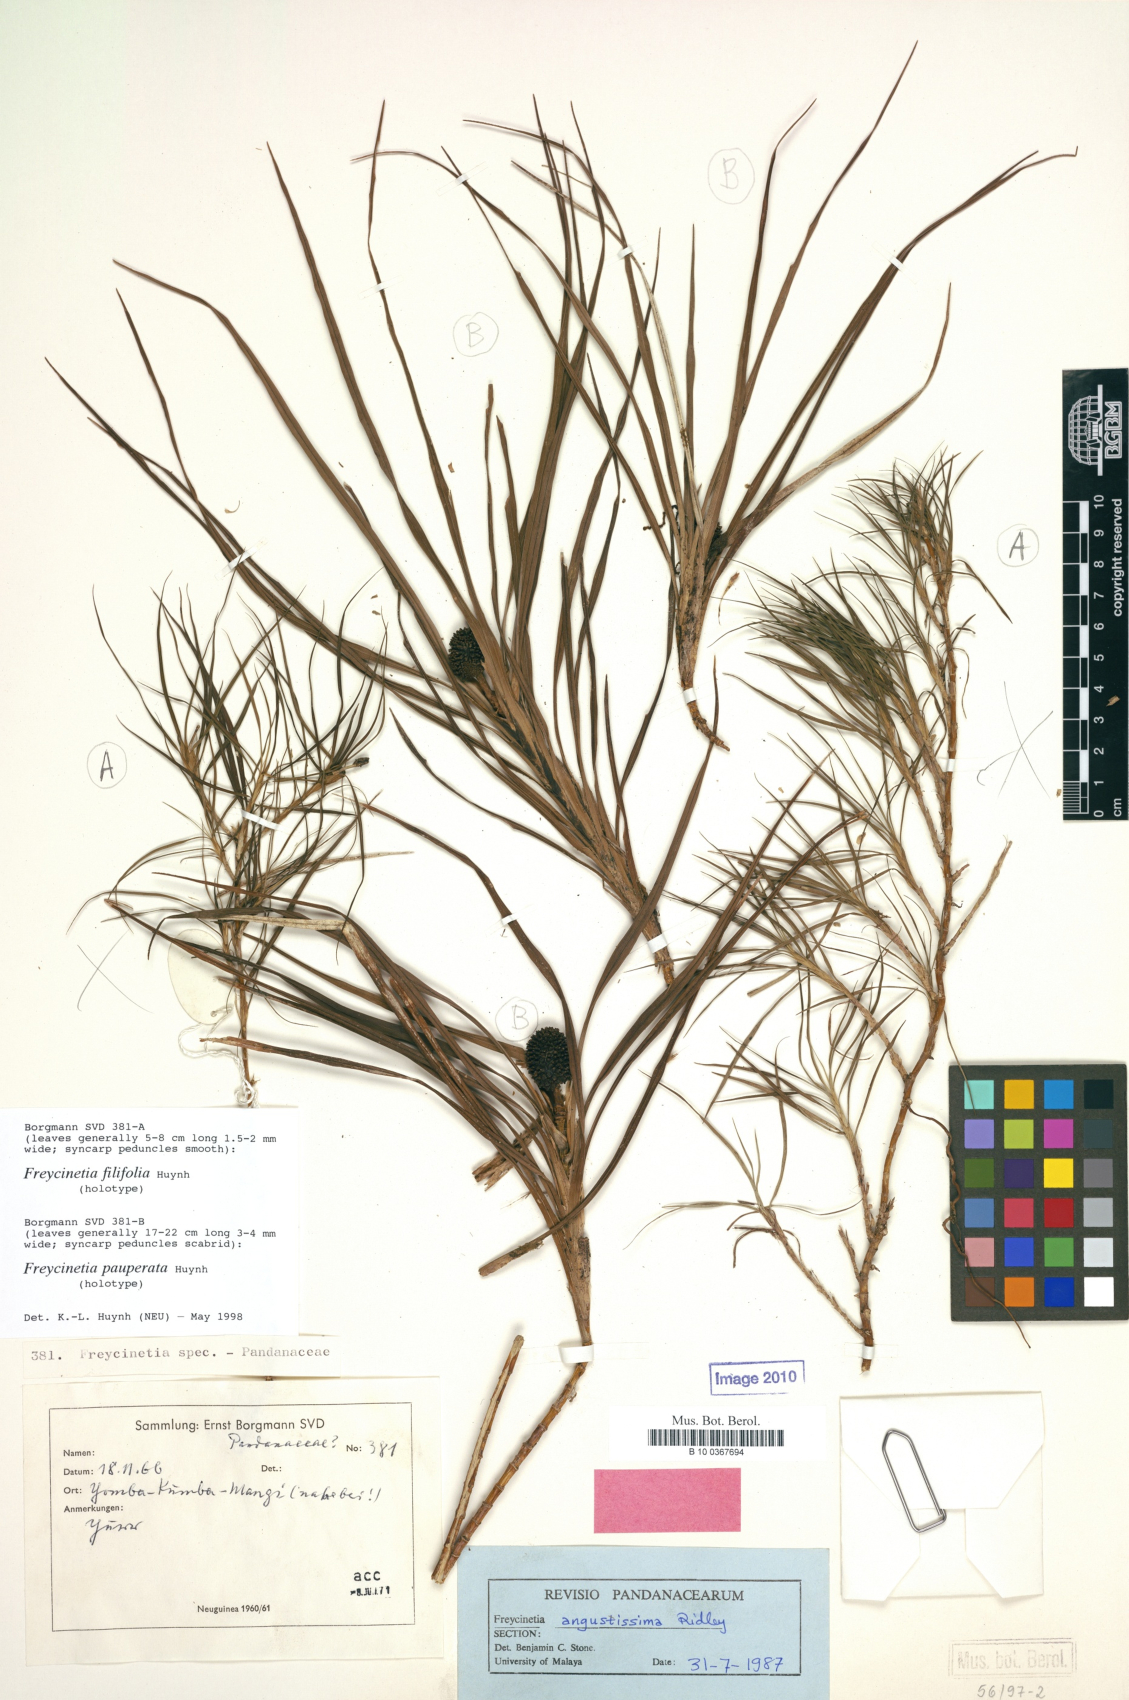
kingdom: Plantae
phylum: Tracheophyta
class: Liliopsida
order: Pandanales
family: Pandanaceae
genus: Freycinetia
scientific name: Freycinetia pauperata
